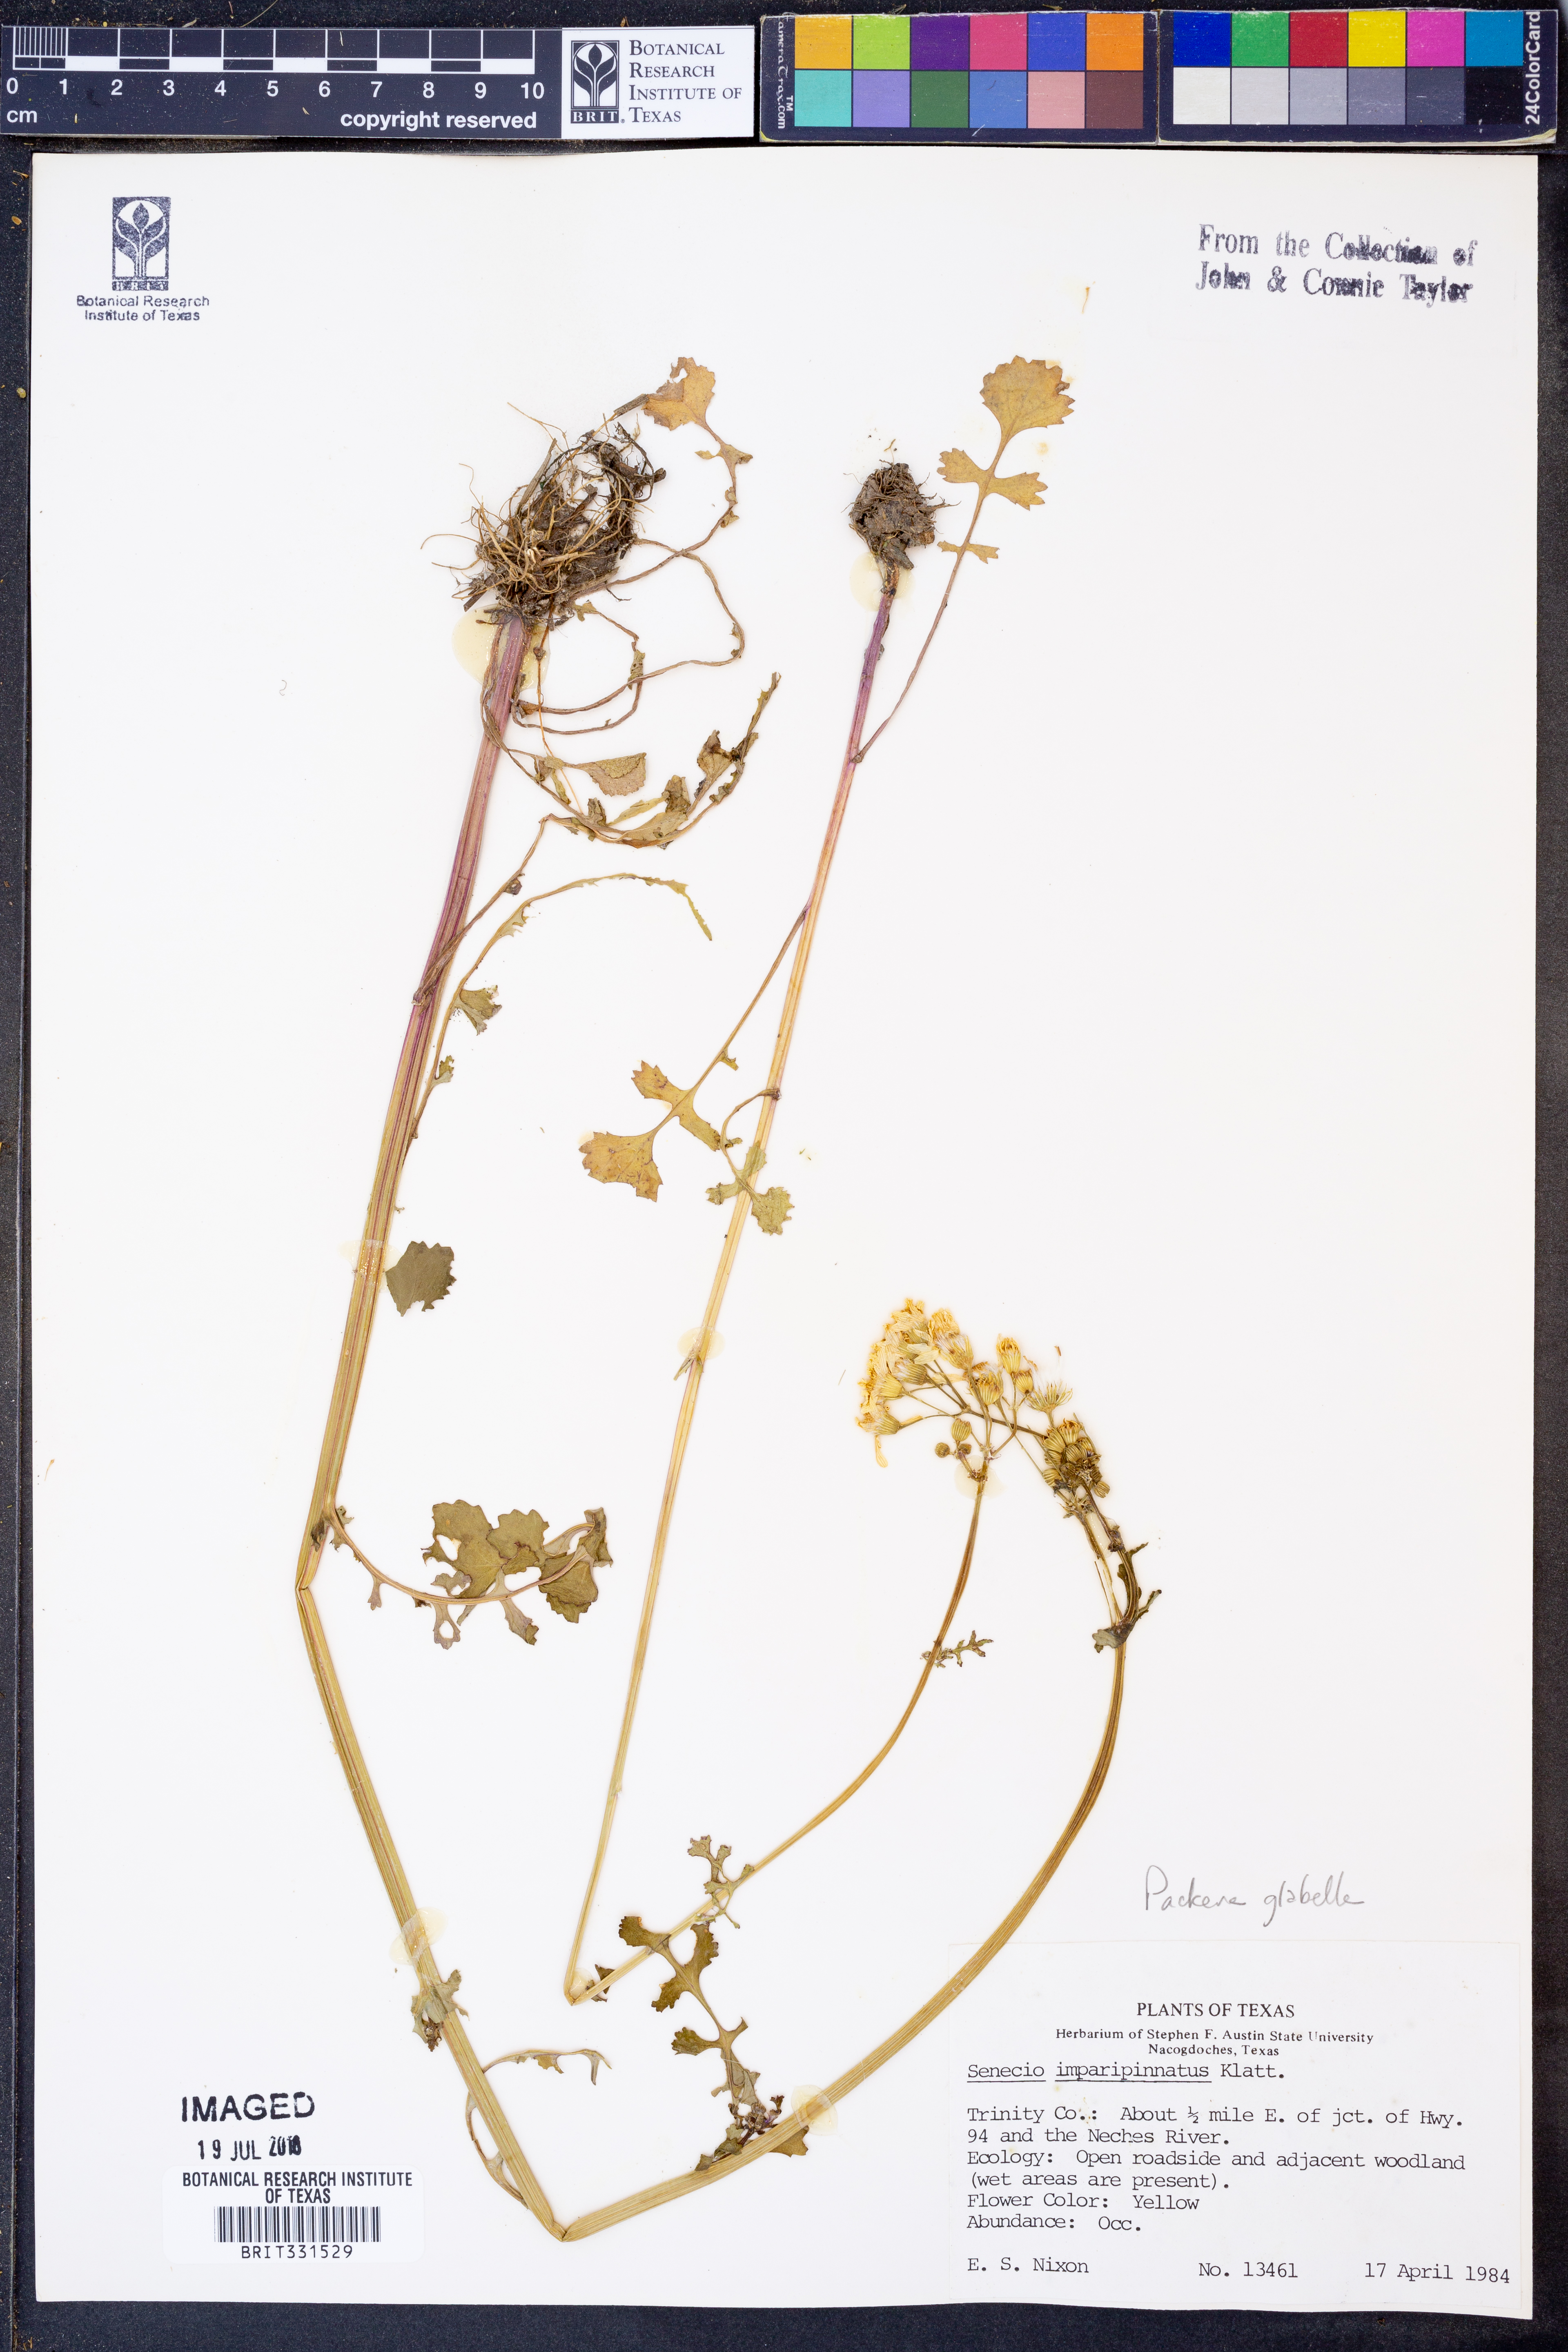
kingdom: Plantae
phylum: Tracheophyta
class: Magnoliopsida
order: Asterales
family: Asteraceae
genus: Packera
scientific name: Packera glabella
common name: Butterweed
